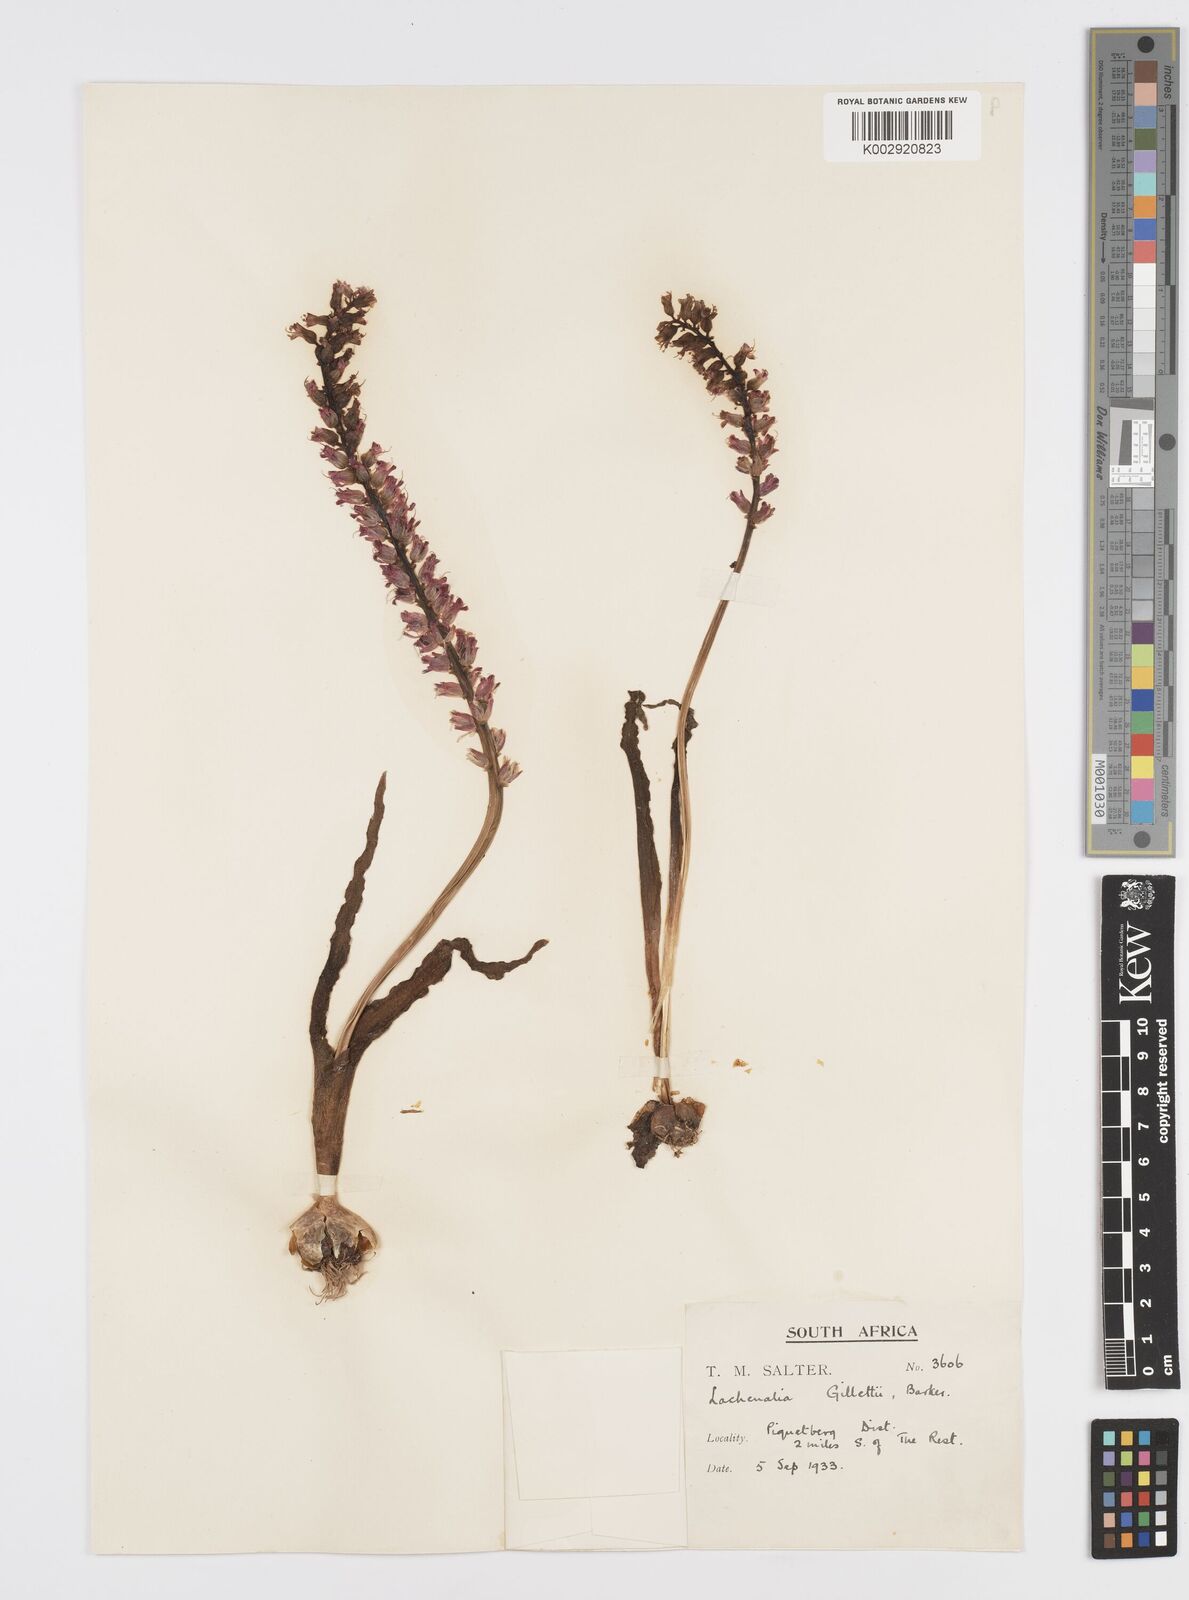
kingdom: Plantae
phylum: Tracheophyta
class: Liliopsida
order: Asparagales
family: Asparagaceae
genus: Lachenalia
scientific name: Lachenalia pallida
